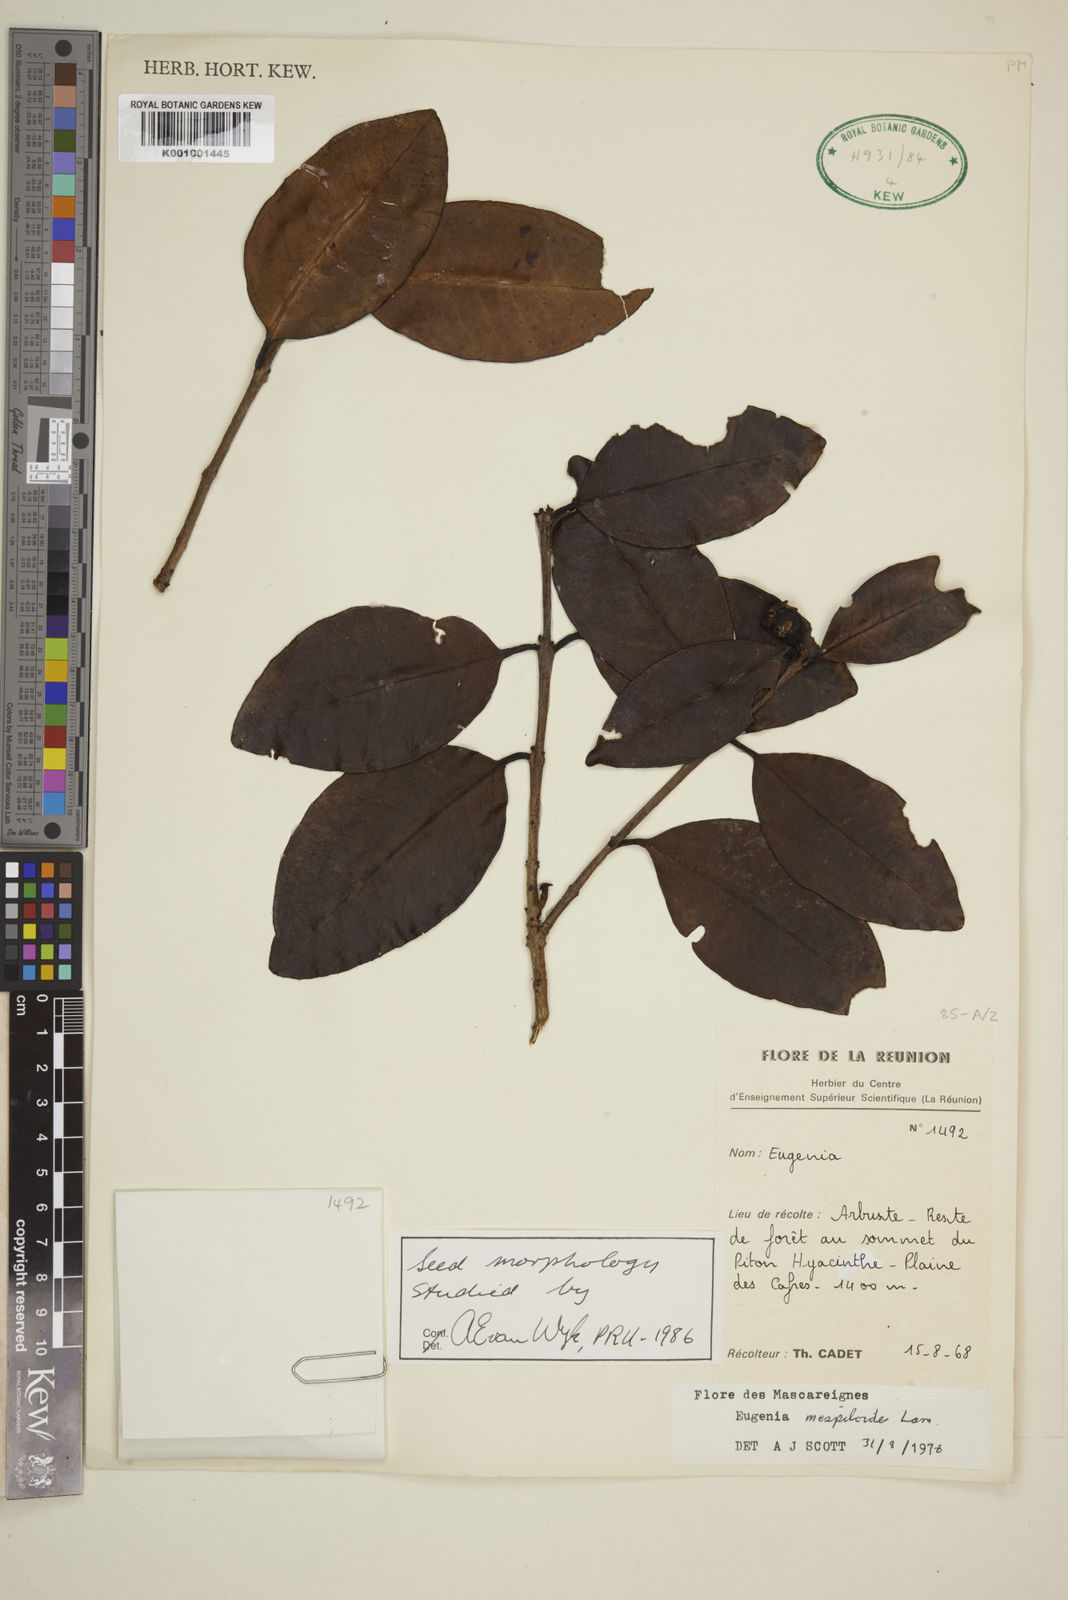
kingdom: Plantae
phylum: Tracheophyta
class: Magnoliopsida
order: Myrtales
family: Myrtaceae
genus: Eugenia
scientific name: Eugenia mespiloides
